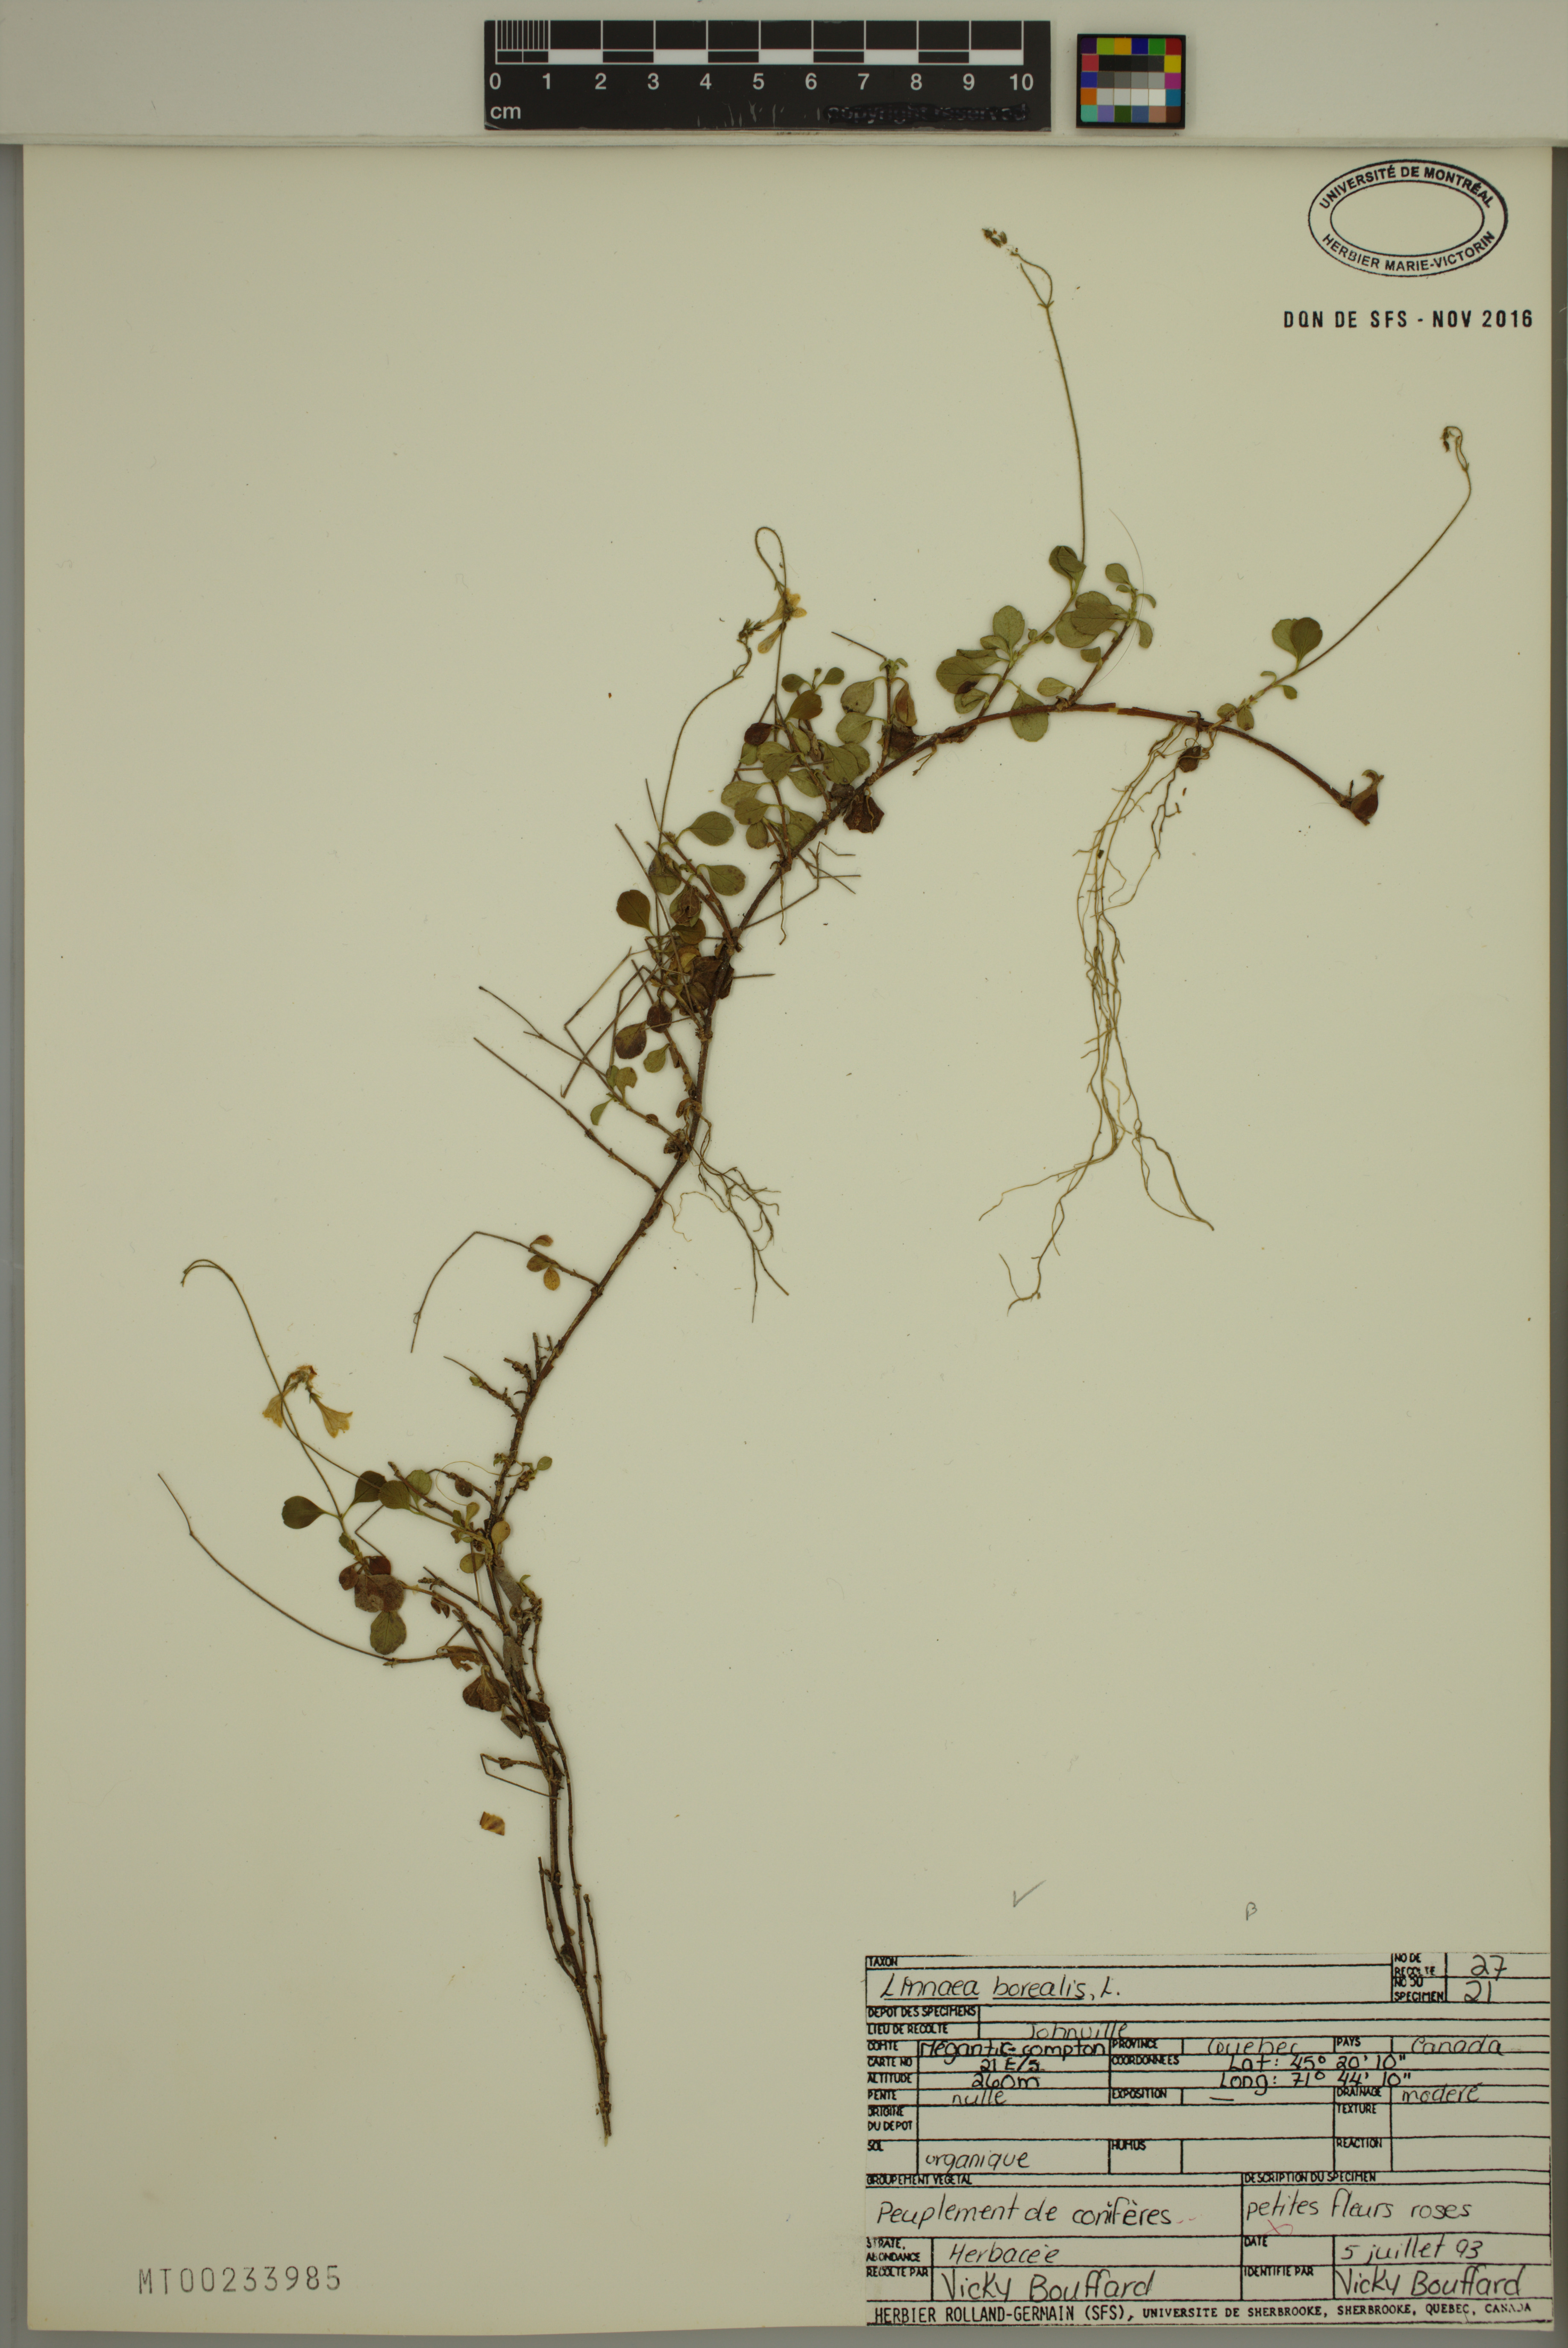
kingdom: Plantae
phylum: Tracheophyta
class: Magnoliopsida
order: Dipsacales
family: Caprifoliaceae
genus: Linnaea
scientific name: Linnaea borealis
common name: Twinflower
